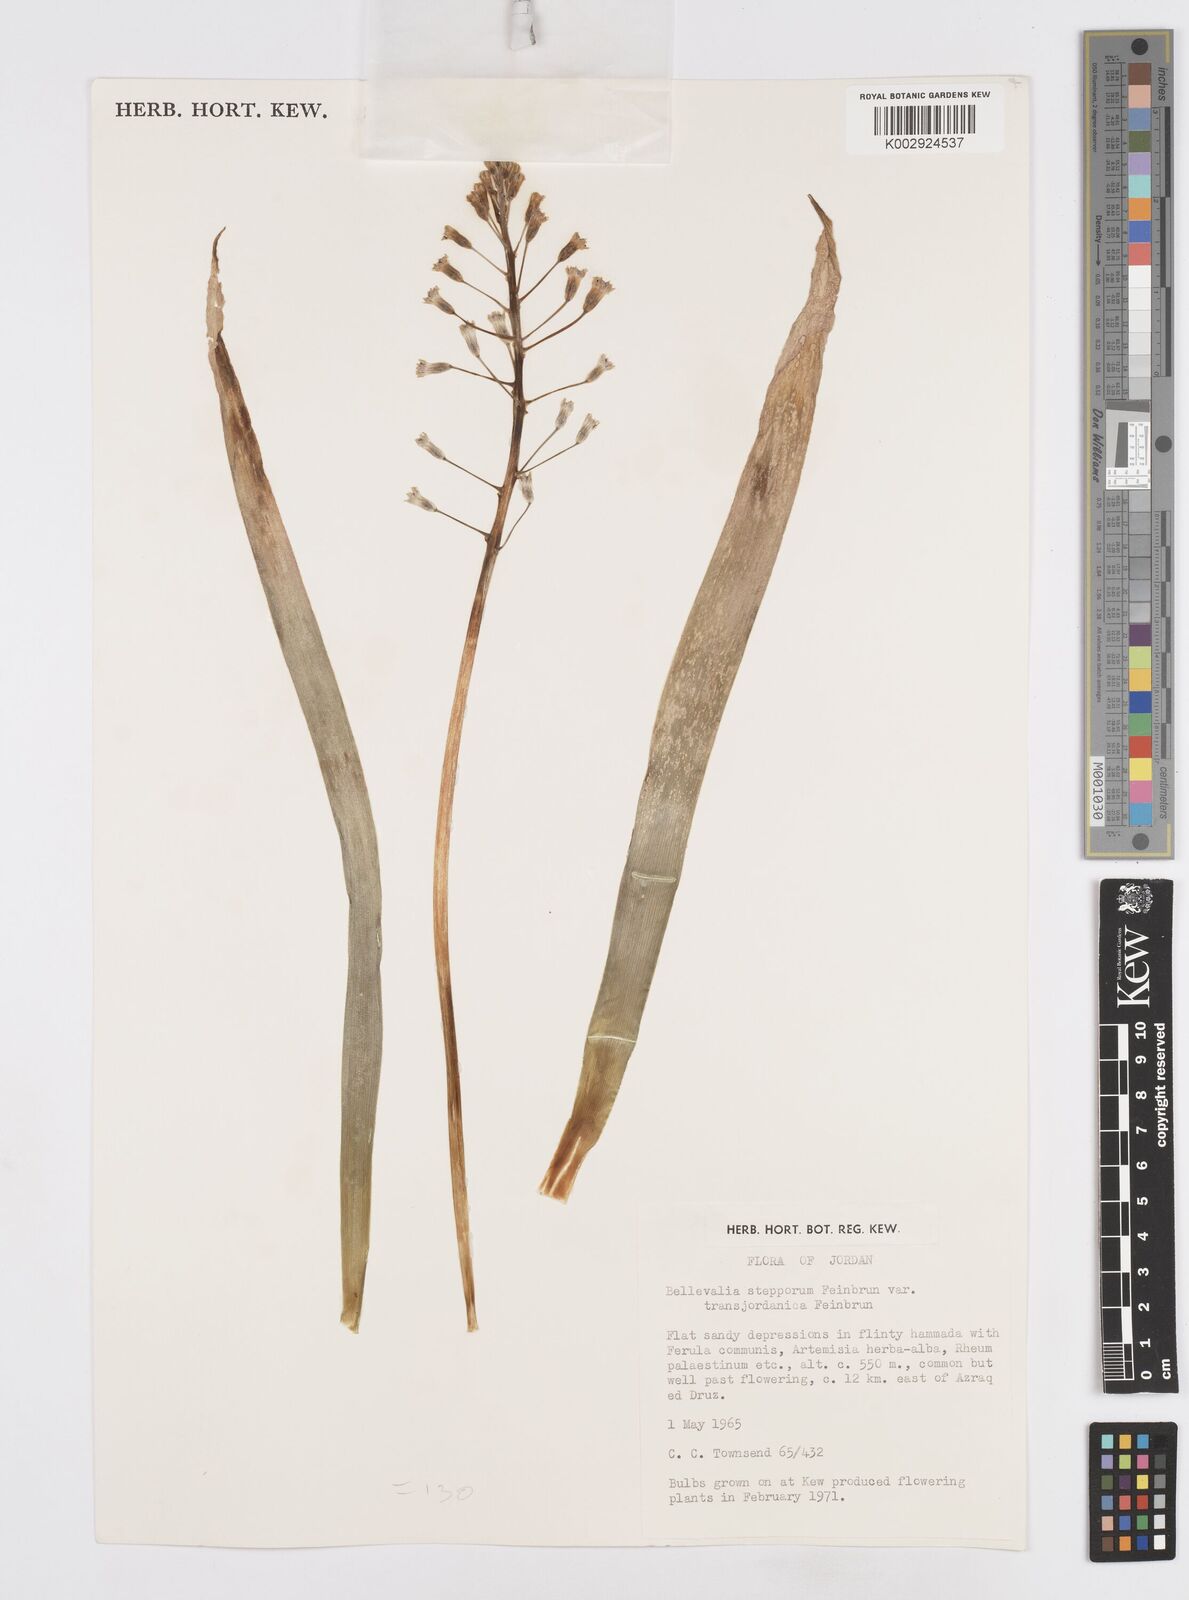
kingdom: Plantae
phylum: Tracheophyta
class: Liliopsida
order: Asparagales
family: Asparagaceae
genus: Bellevalia
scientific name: Bellevalia stepporum
